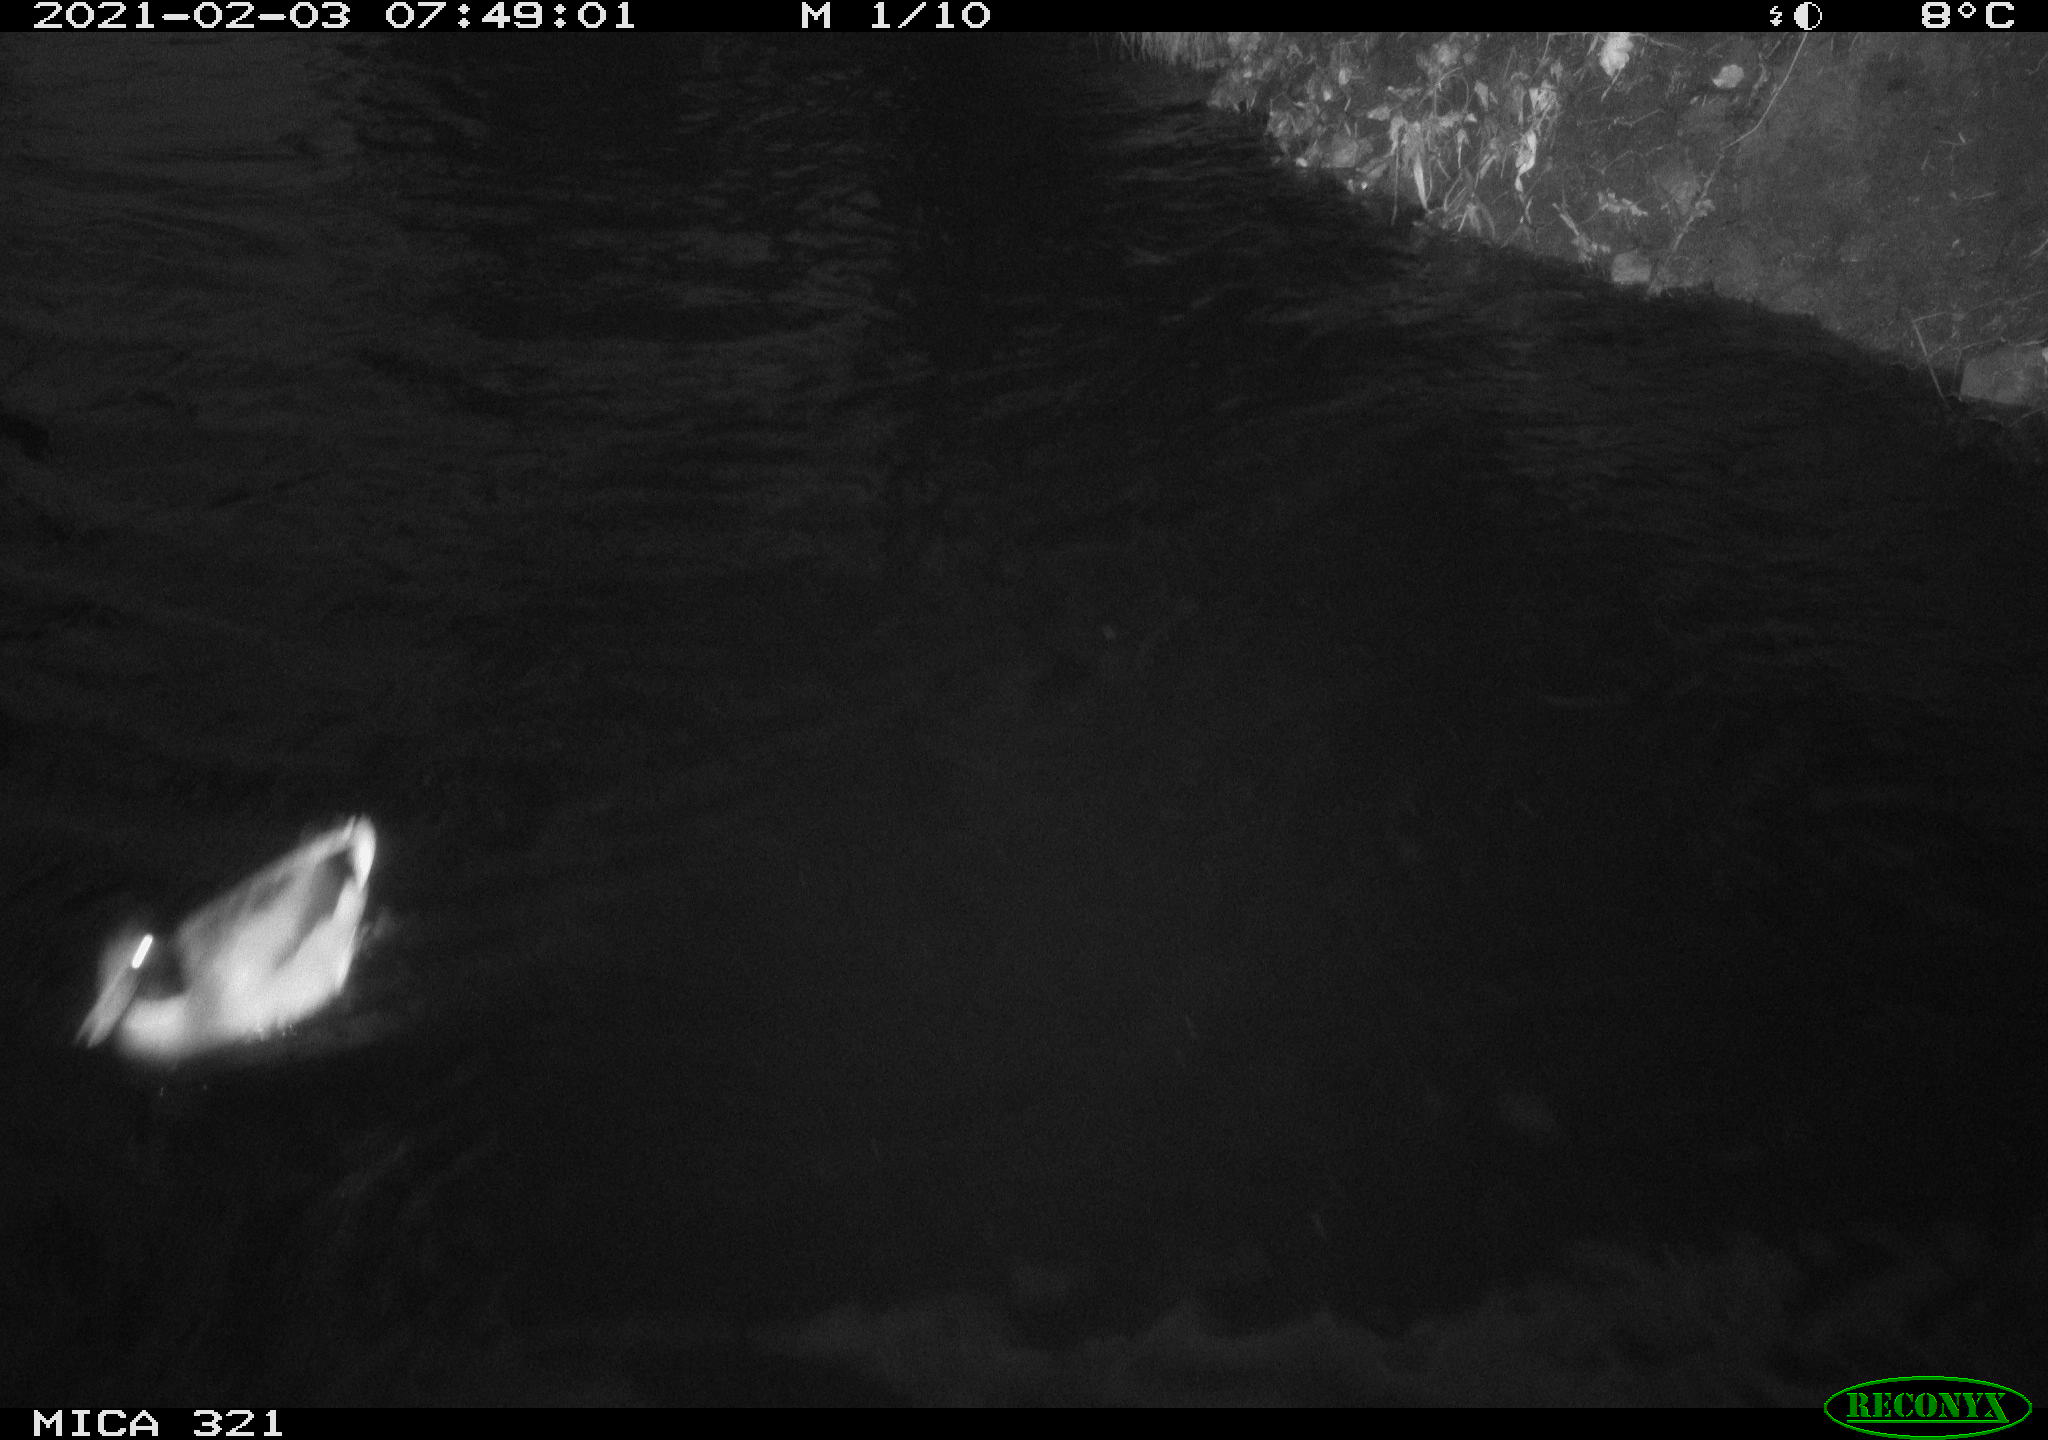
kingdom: Animalia
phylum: Chordata
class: Aves
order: Anseriformes
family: Anatidae
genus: Anas
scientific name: Anas platyrhynchos
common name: Mallard
